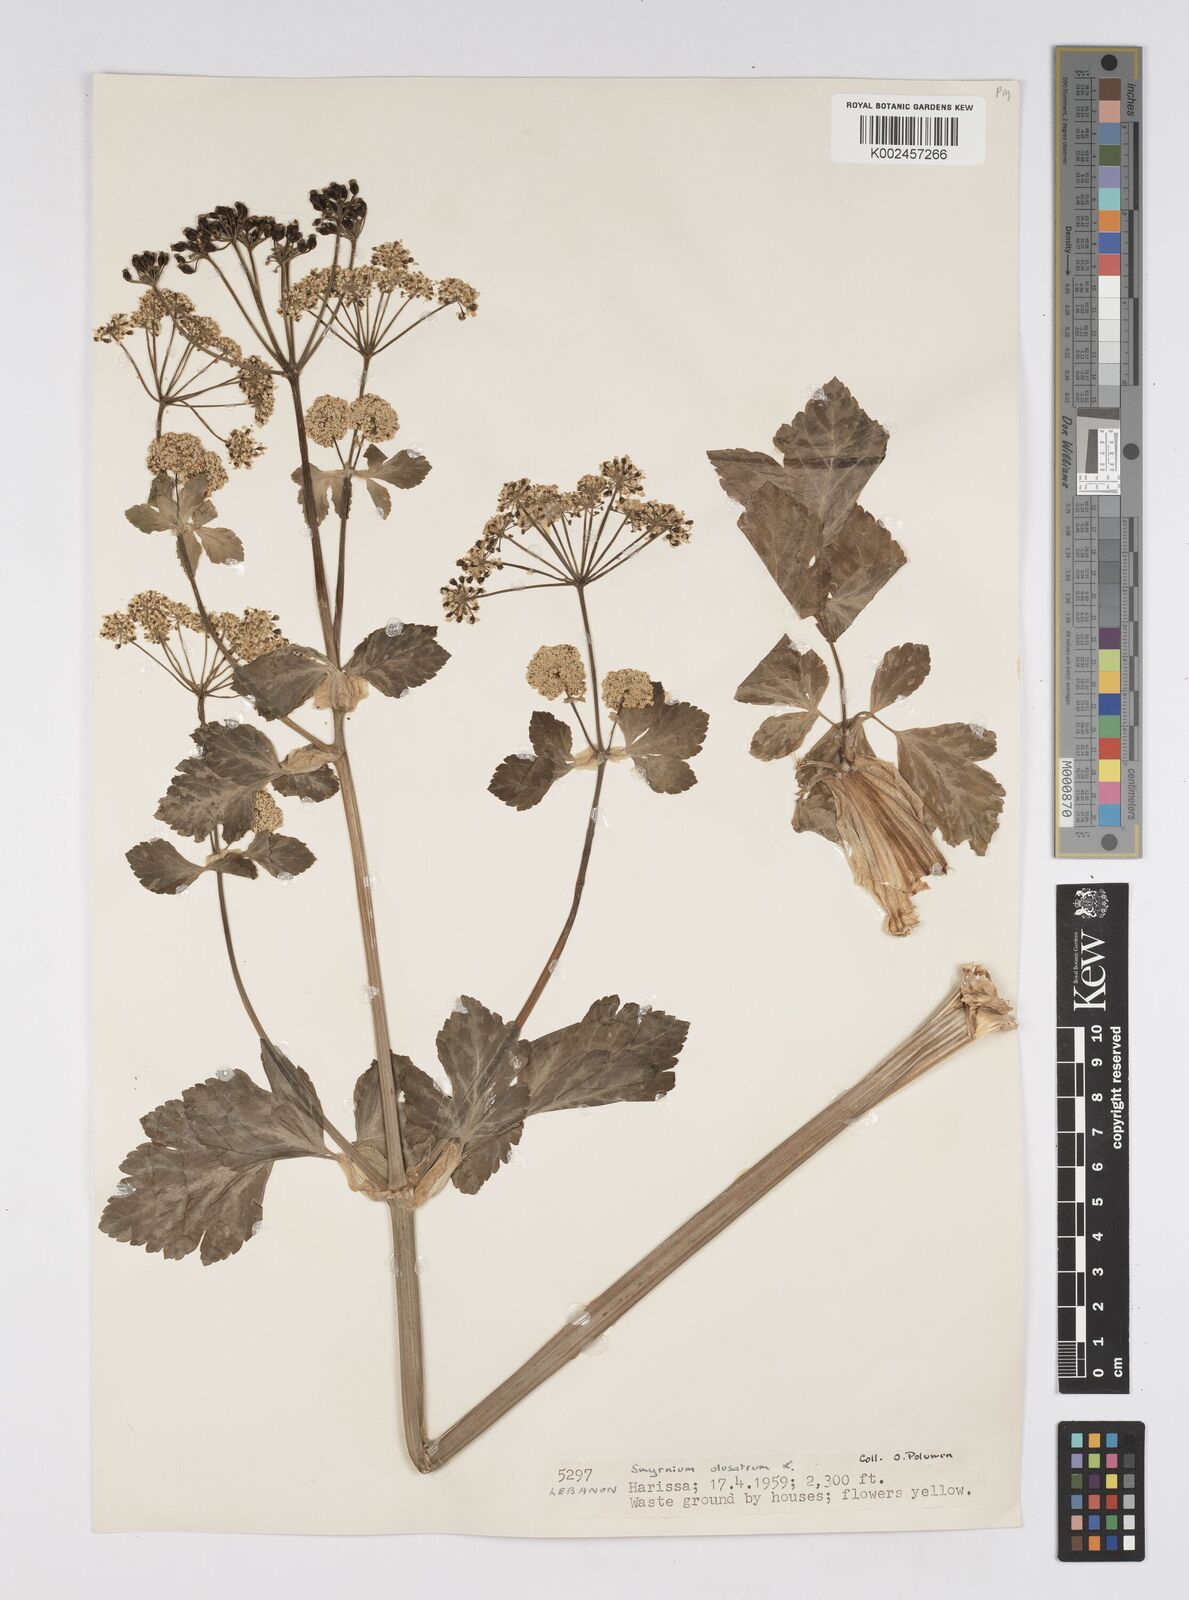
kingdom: Plantae
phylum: Tracheophyta
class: Magnoliopsida
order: Apiales
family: Apiaceae
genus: Smyrnium
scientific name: Smyrnium olusatrum
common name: Alexanders
